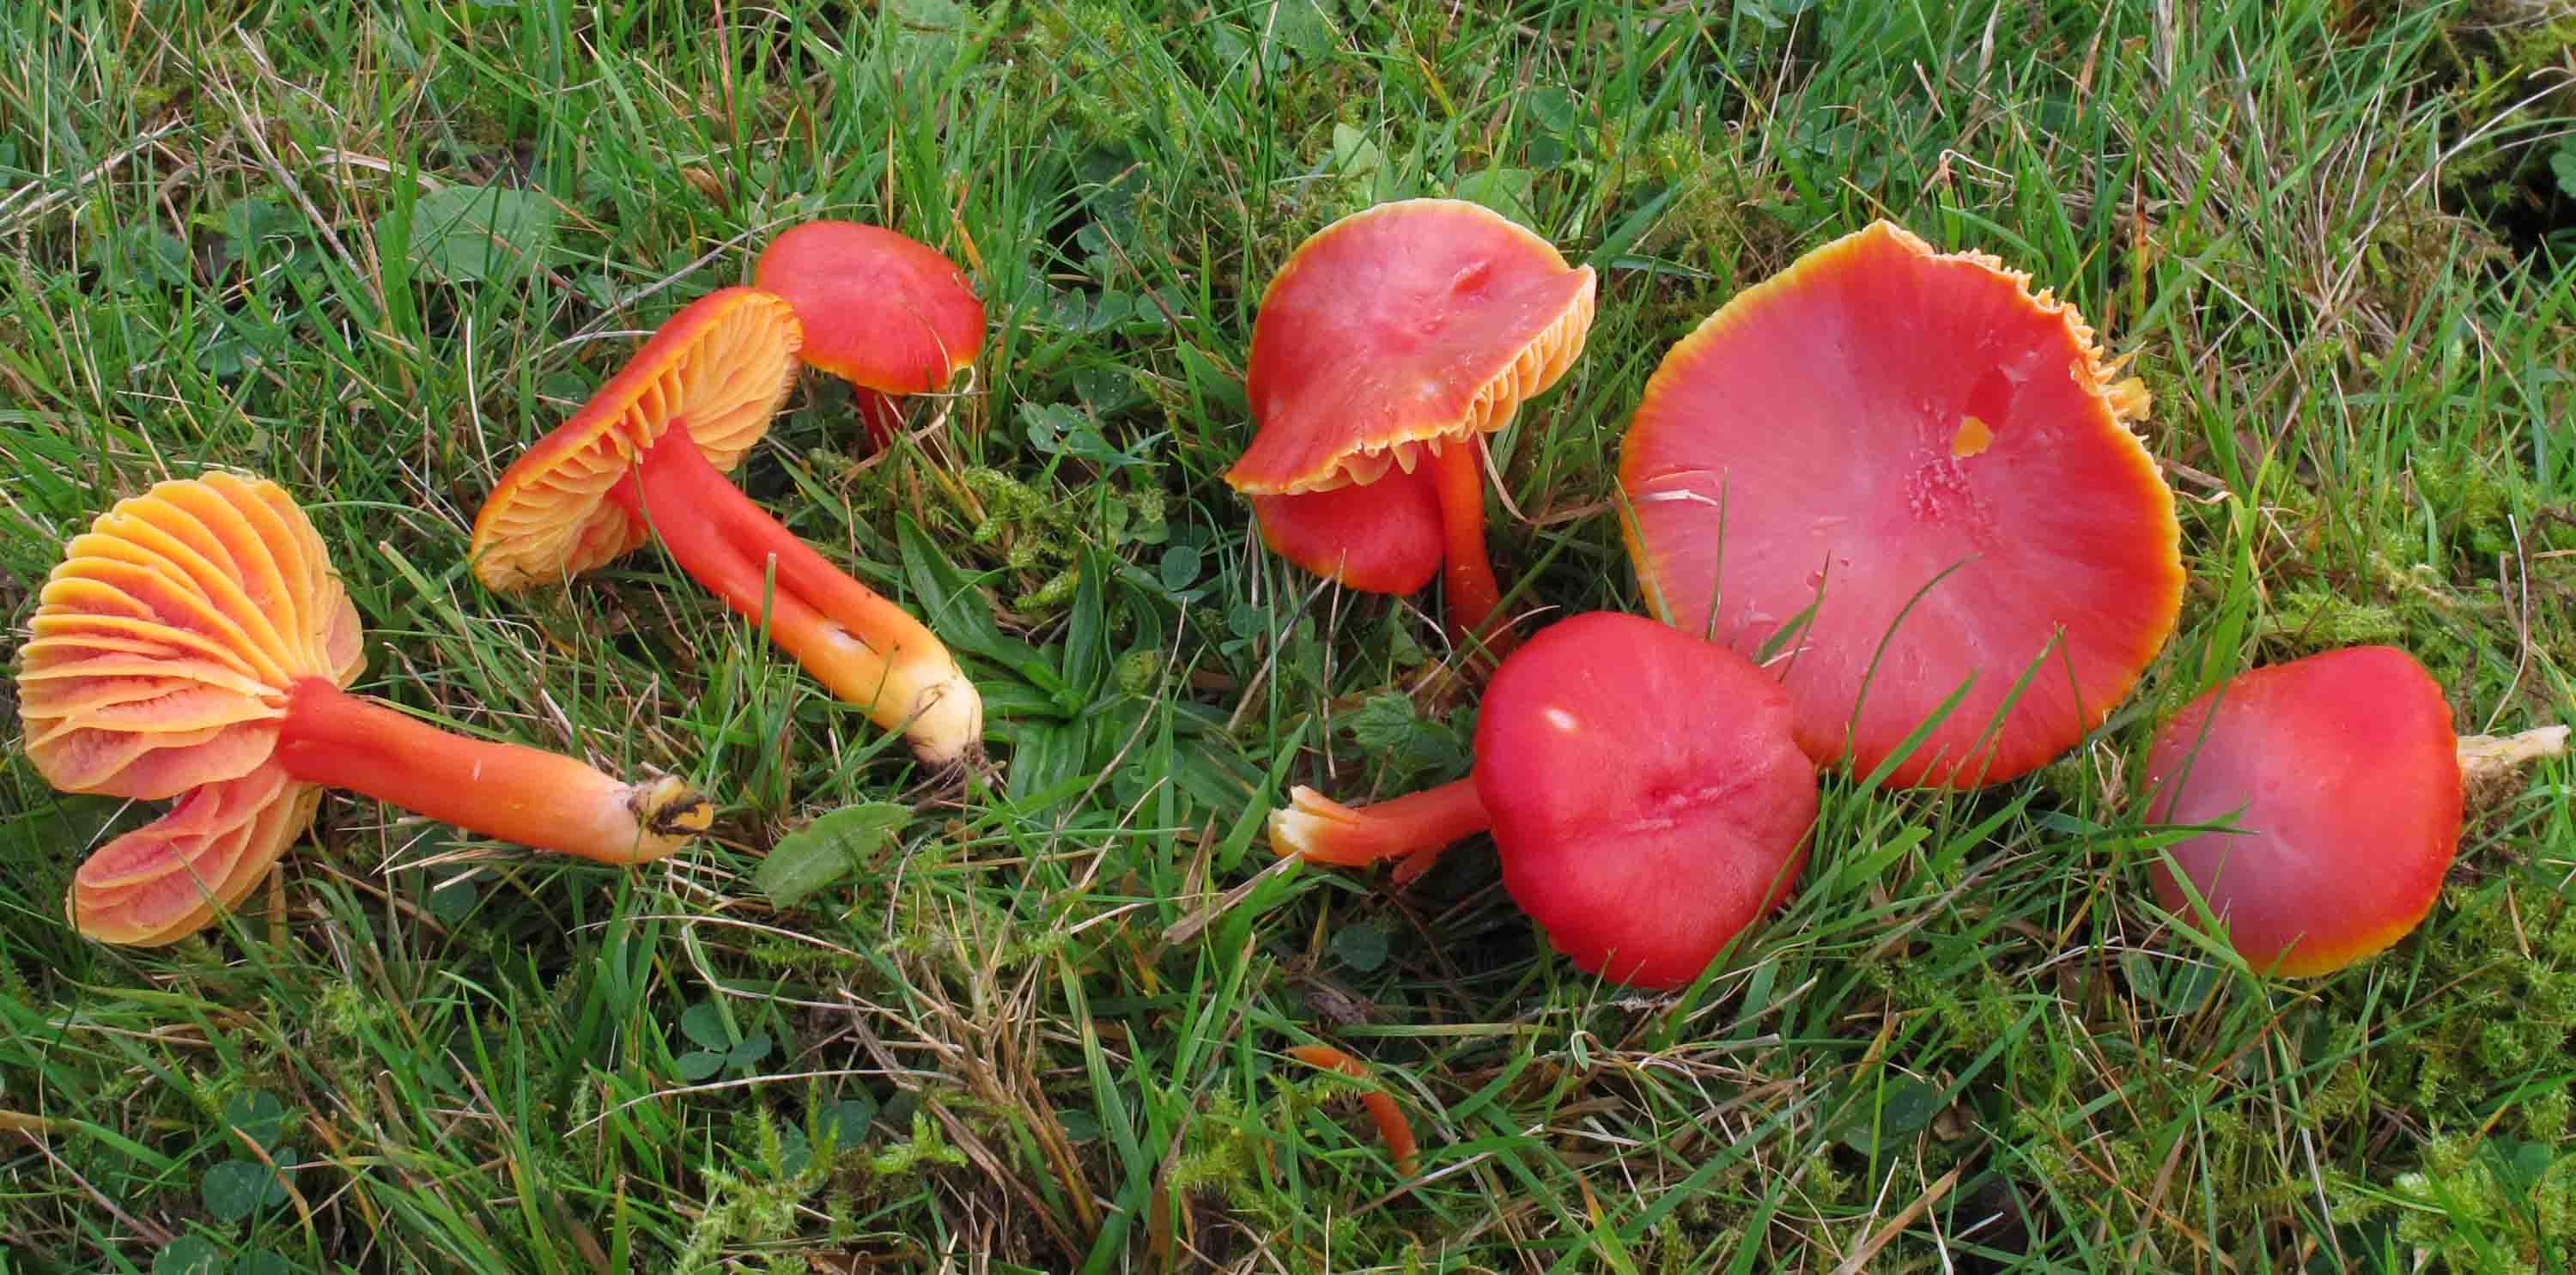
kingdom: Fungi
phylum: Basidiomycota
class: Agaricomycetes
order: Agaricales
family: Hygrophoraceae
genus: Hygrocybe
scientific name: Hygrocybe coccinea
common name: cinnober-vokshat
